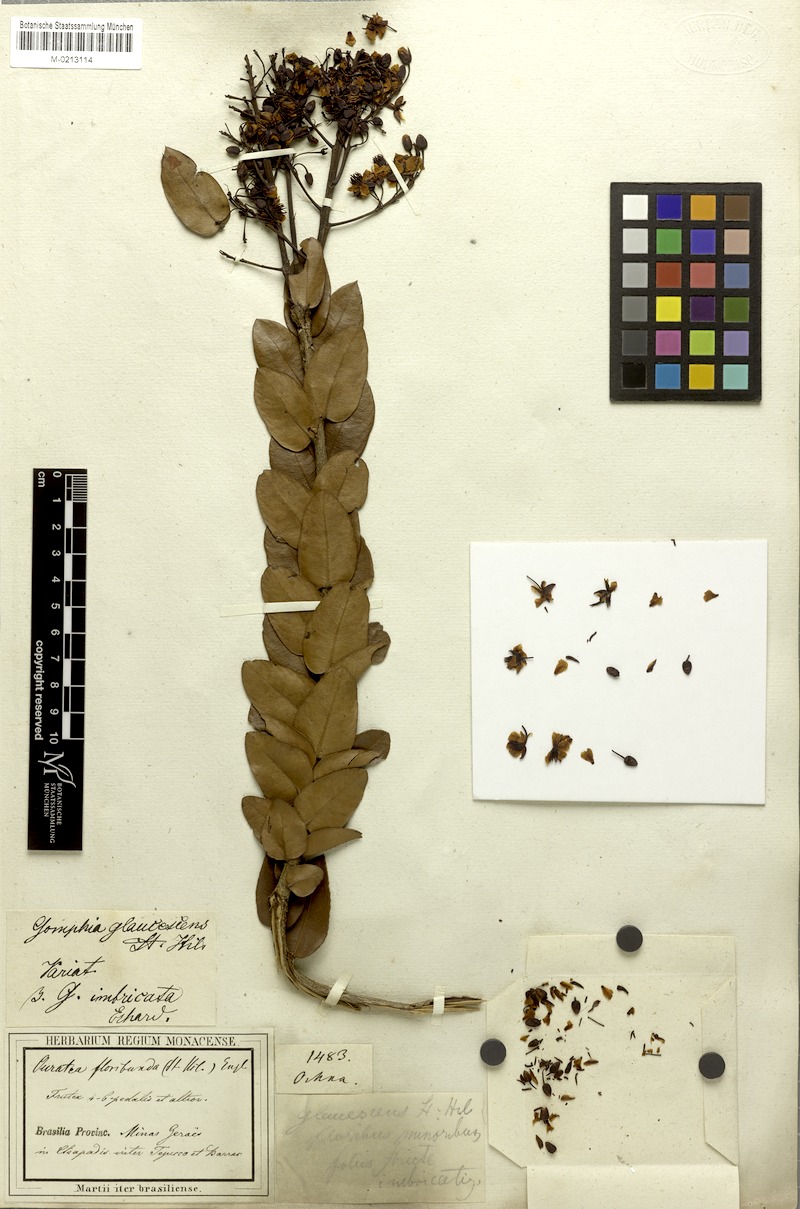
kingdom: Plantae
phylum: Tracheophyta
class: Magnoliopsida
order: Malpighiales
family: Ochnaceae
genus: Ouratea
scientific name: Ouratea floribunda
